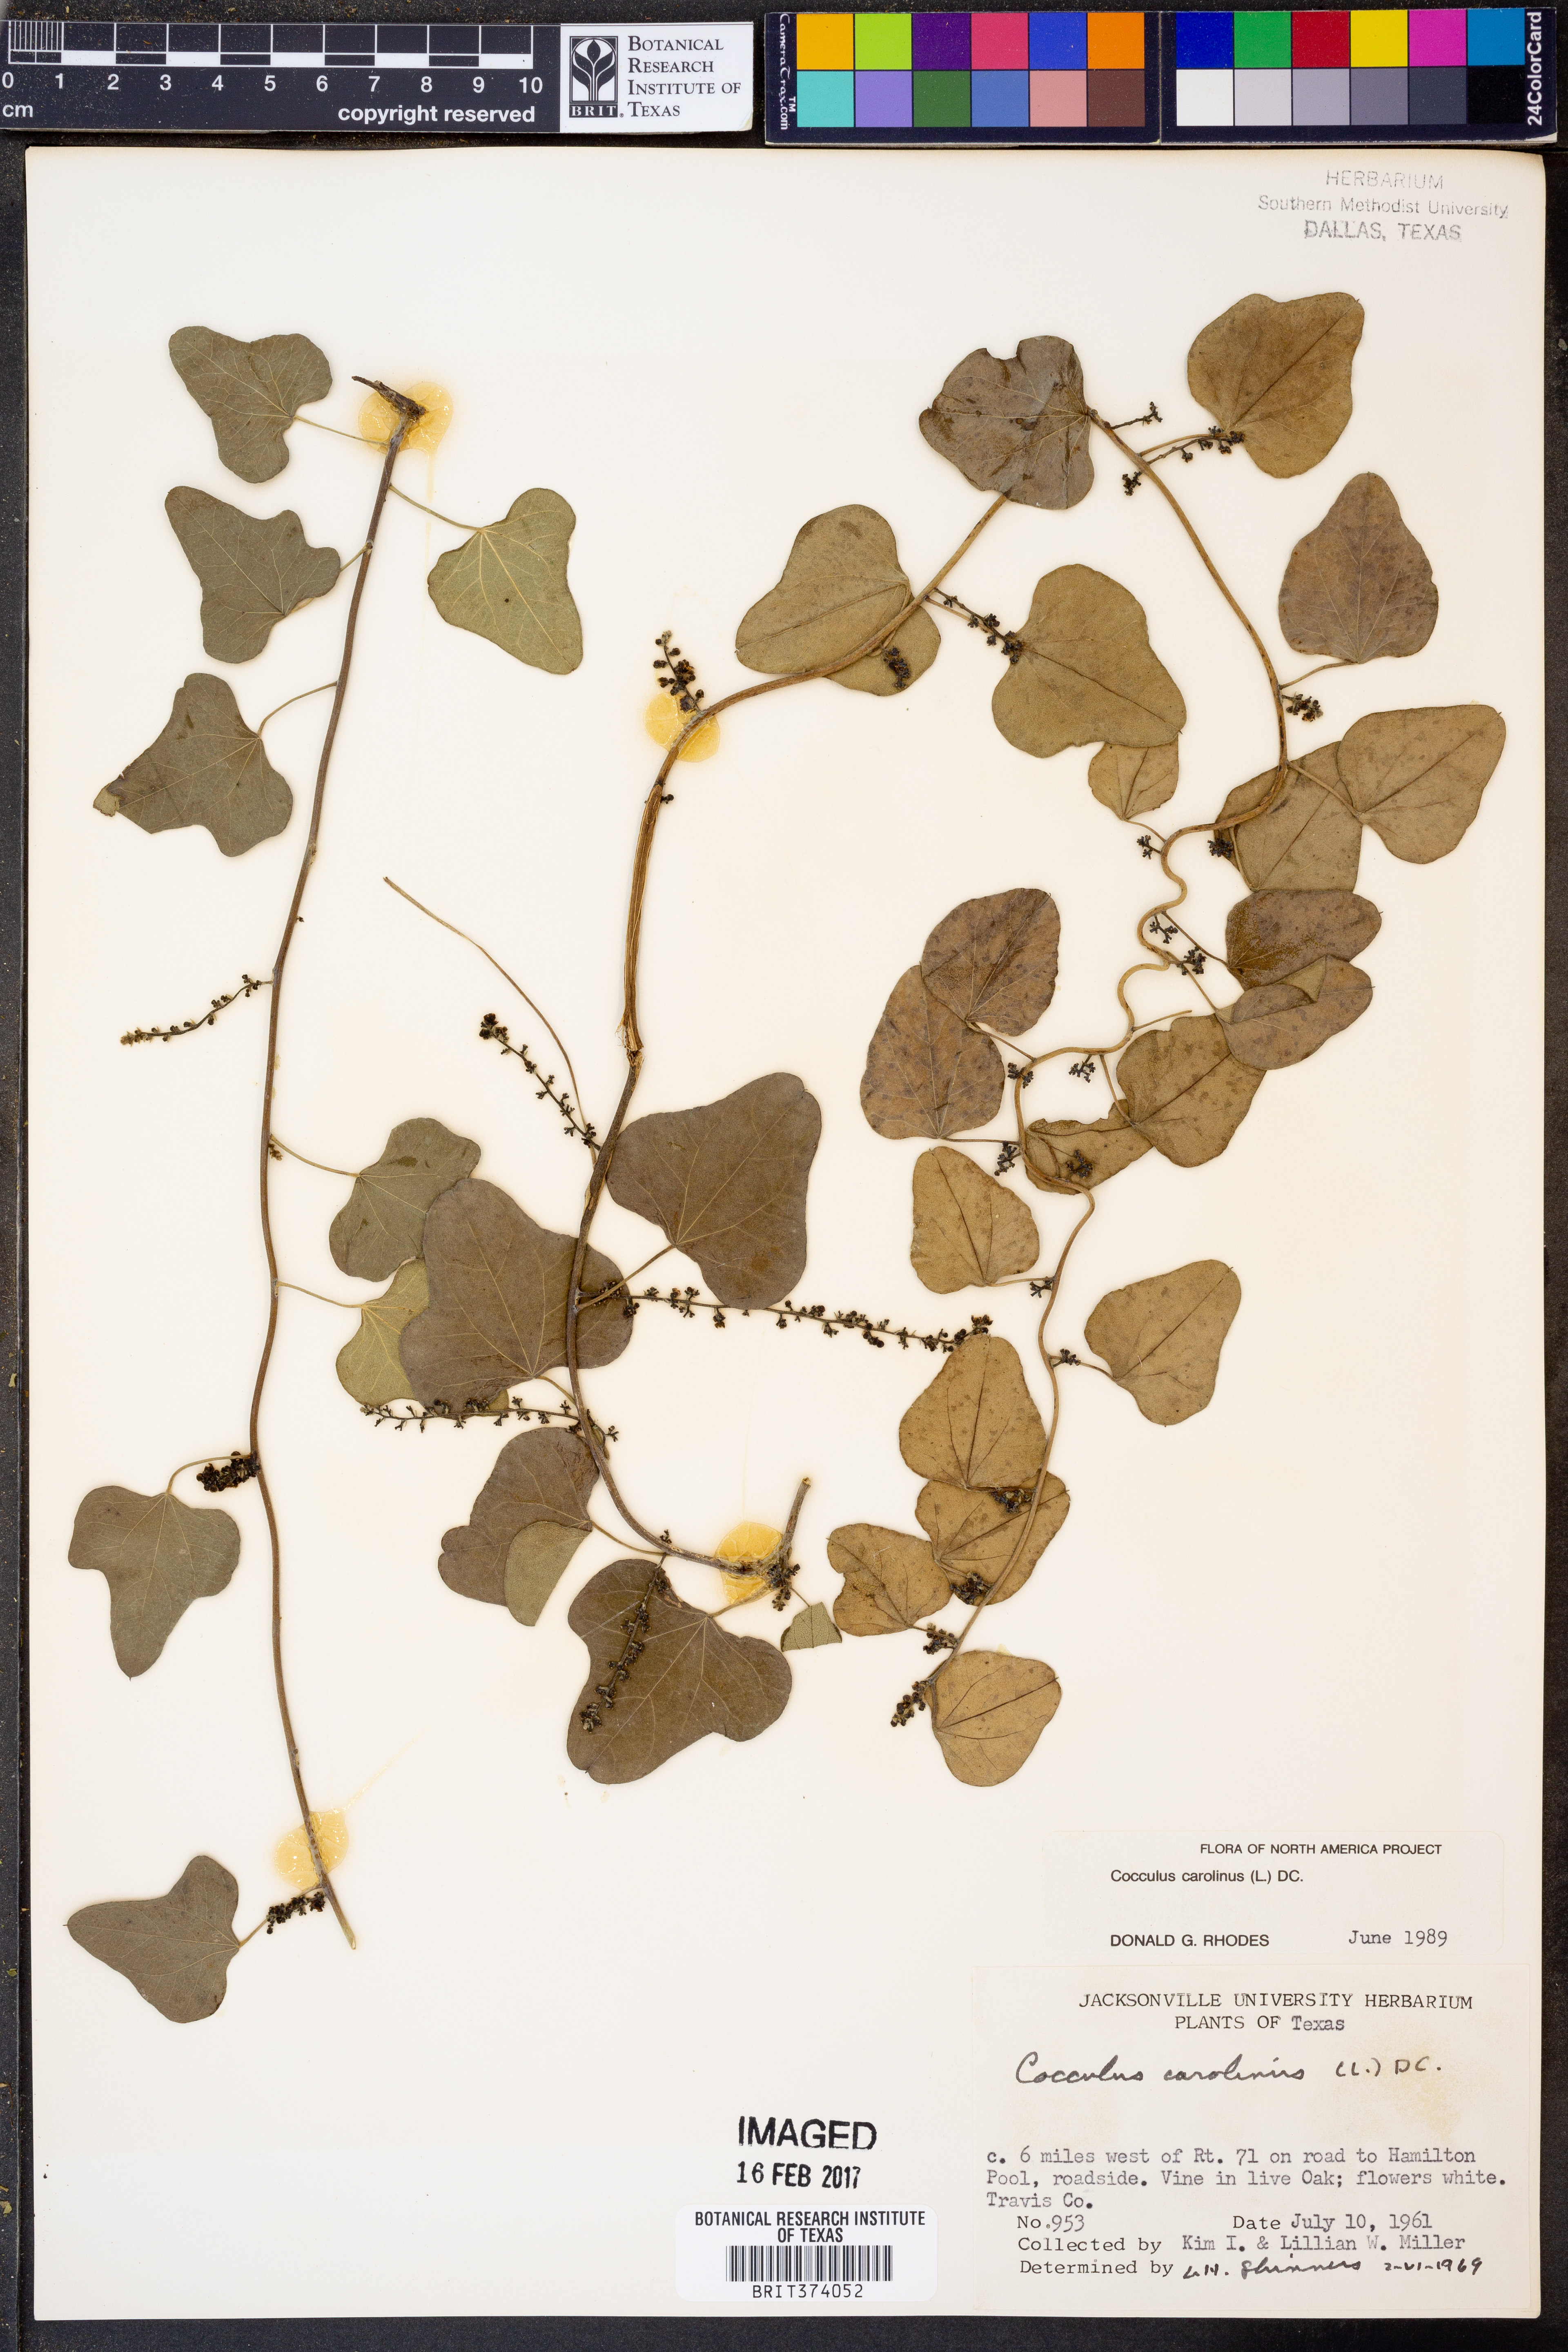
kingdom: Plantae
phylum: Tracheophyta
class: Magnoliopsida
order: Ranunculales
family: Menispermaceae
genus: Cocculus
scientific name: Cocculus carolinus
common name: Carolina moonseed
